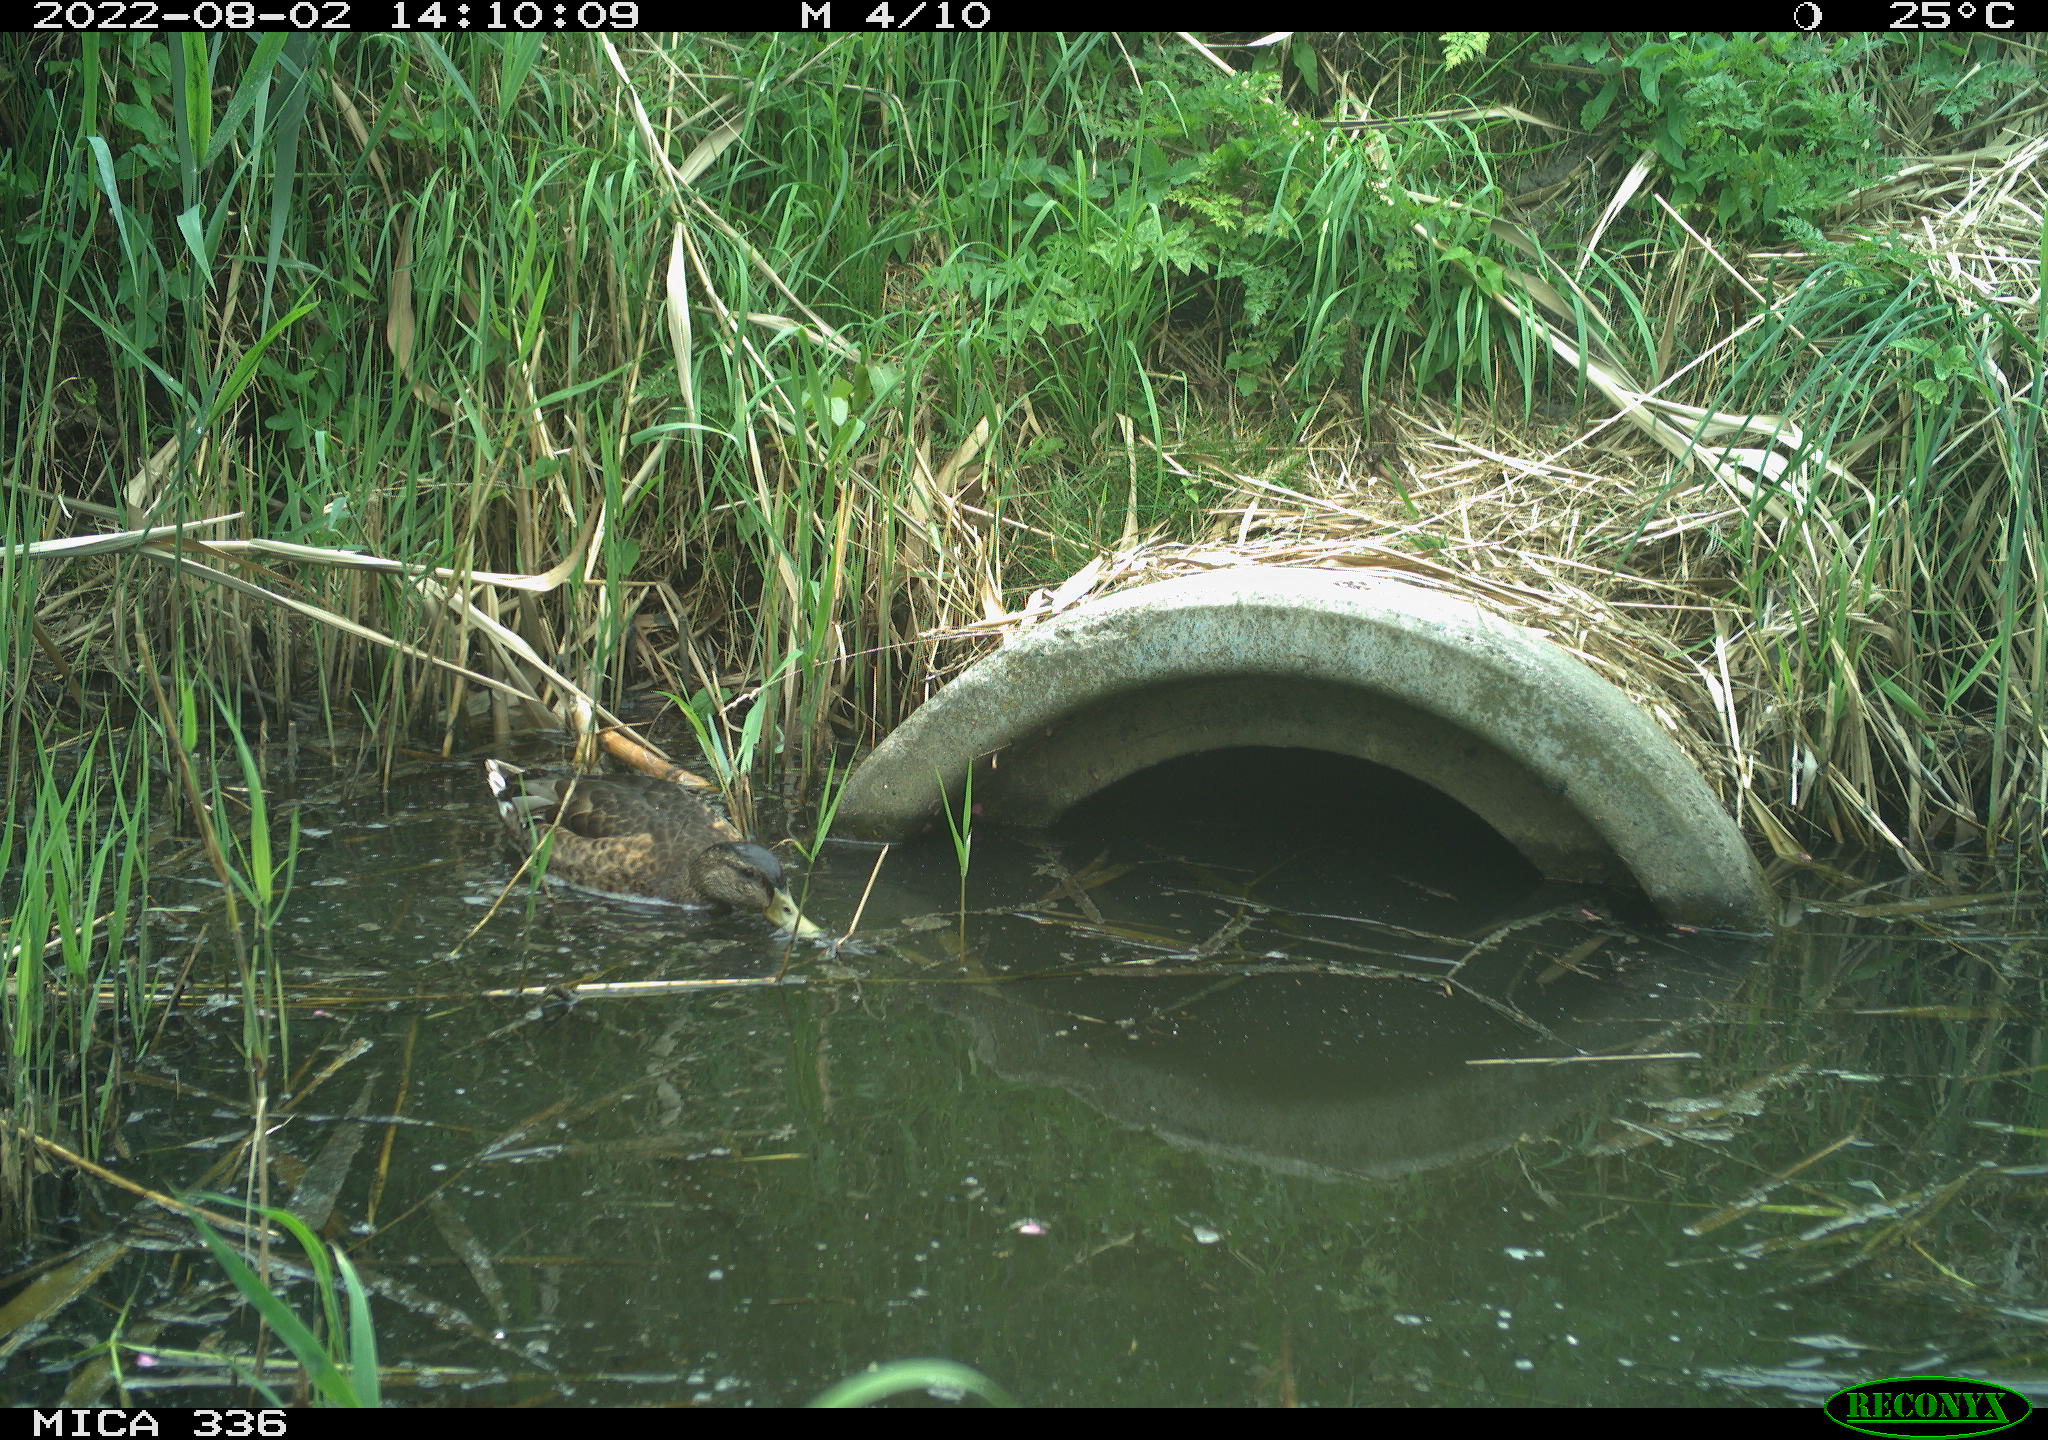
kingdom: Animalia
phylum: Chordata
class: Aves
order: Anseriformes
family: Anatidae
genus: Anas
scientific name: Anas platyrhynchos
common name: Mallard
